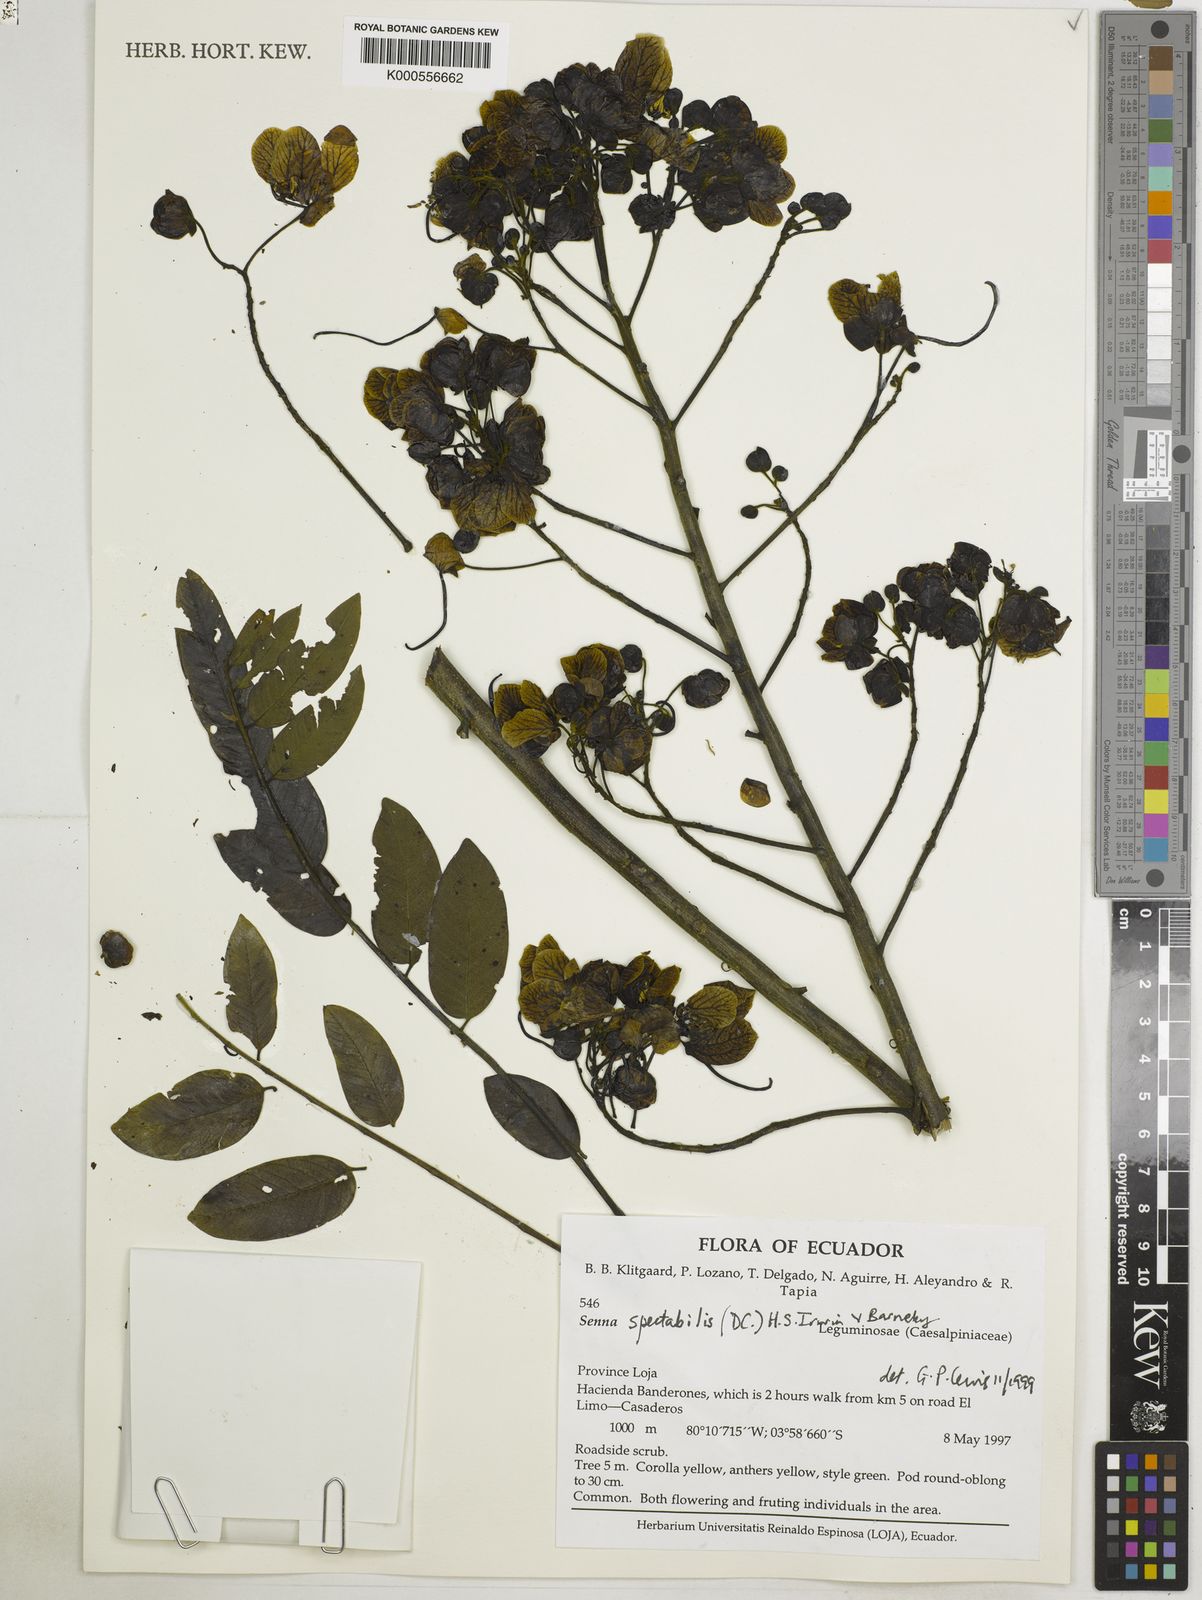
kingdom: Plantae
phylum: Tracheophyta
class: Magnoliopsida
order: Fabales
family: Fabaceae
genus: Senna
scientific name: Senna spectabilis
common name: Casia amarilla
